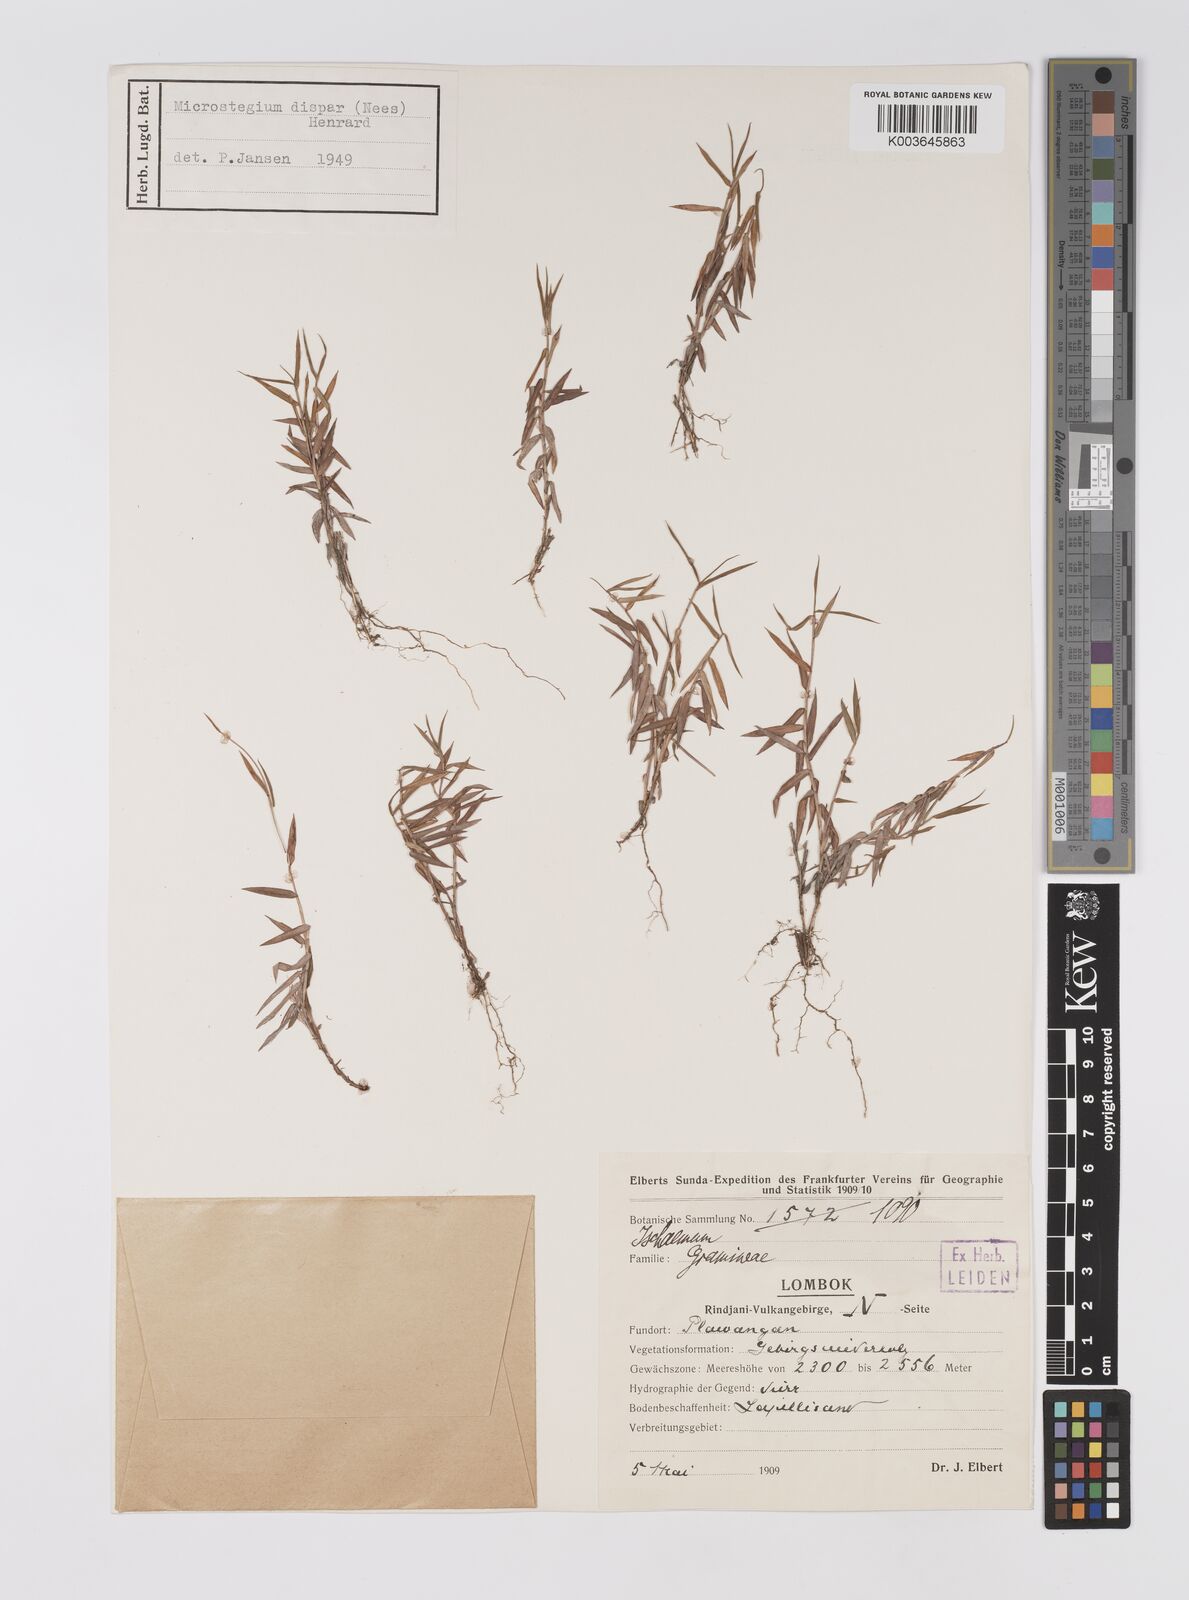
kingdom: Plantae
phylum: Tracheophyta
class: Liliopsida
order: Poales
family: Poaceae
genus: Microstegium
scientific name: Microstegium dispar
